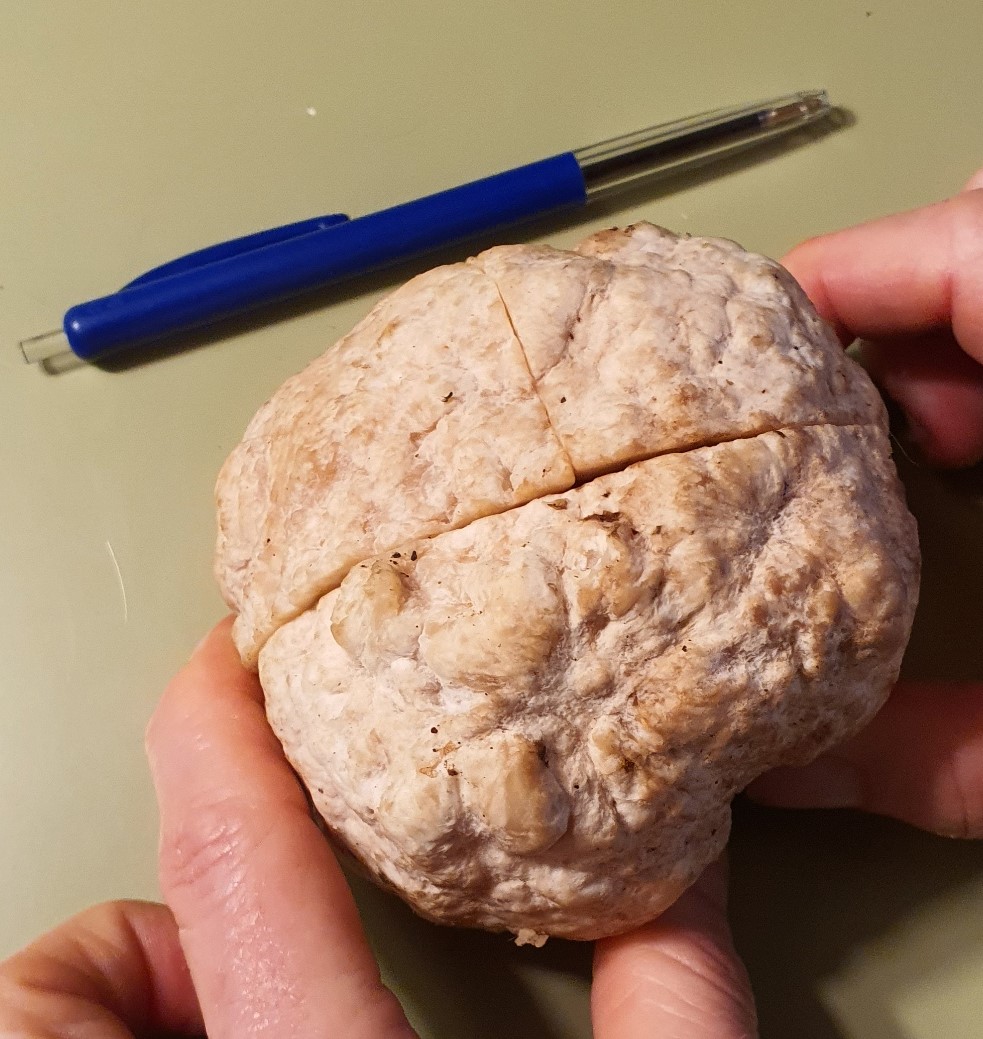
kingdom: Fungi
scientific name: Fungi
